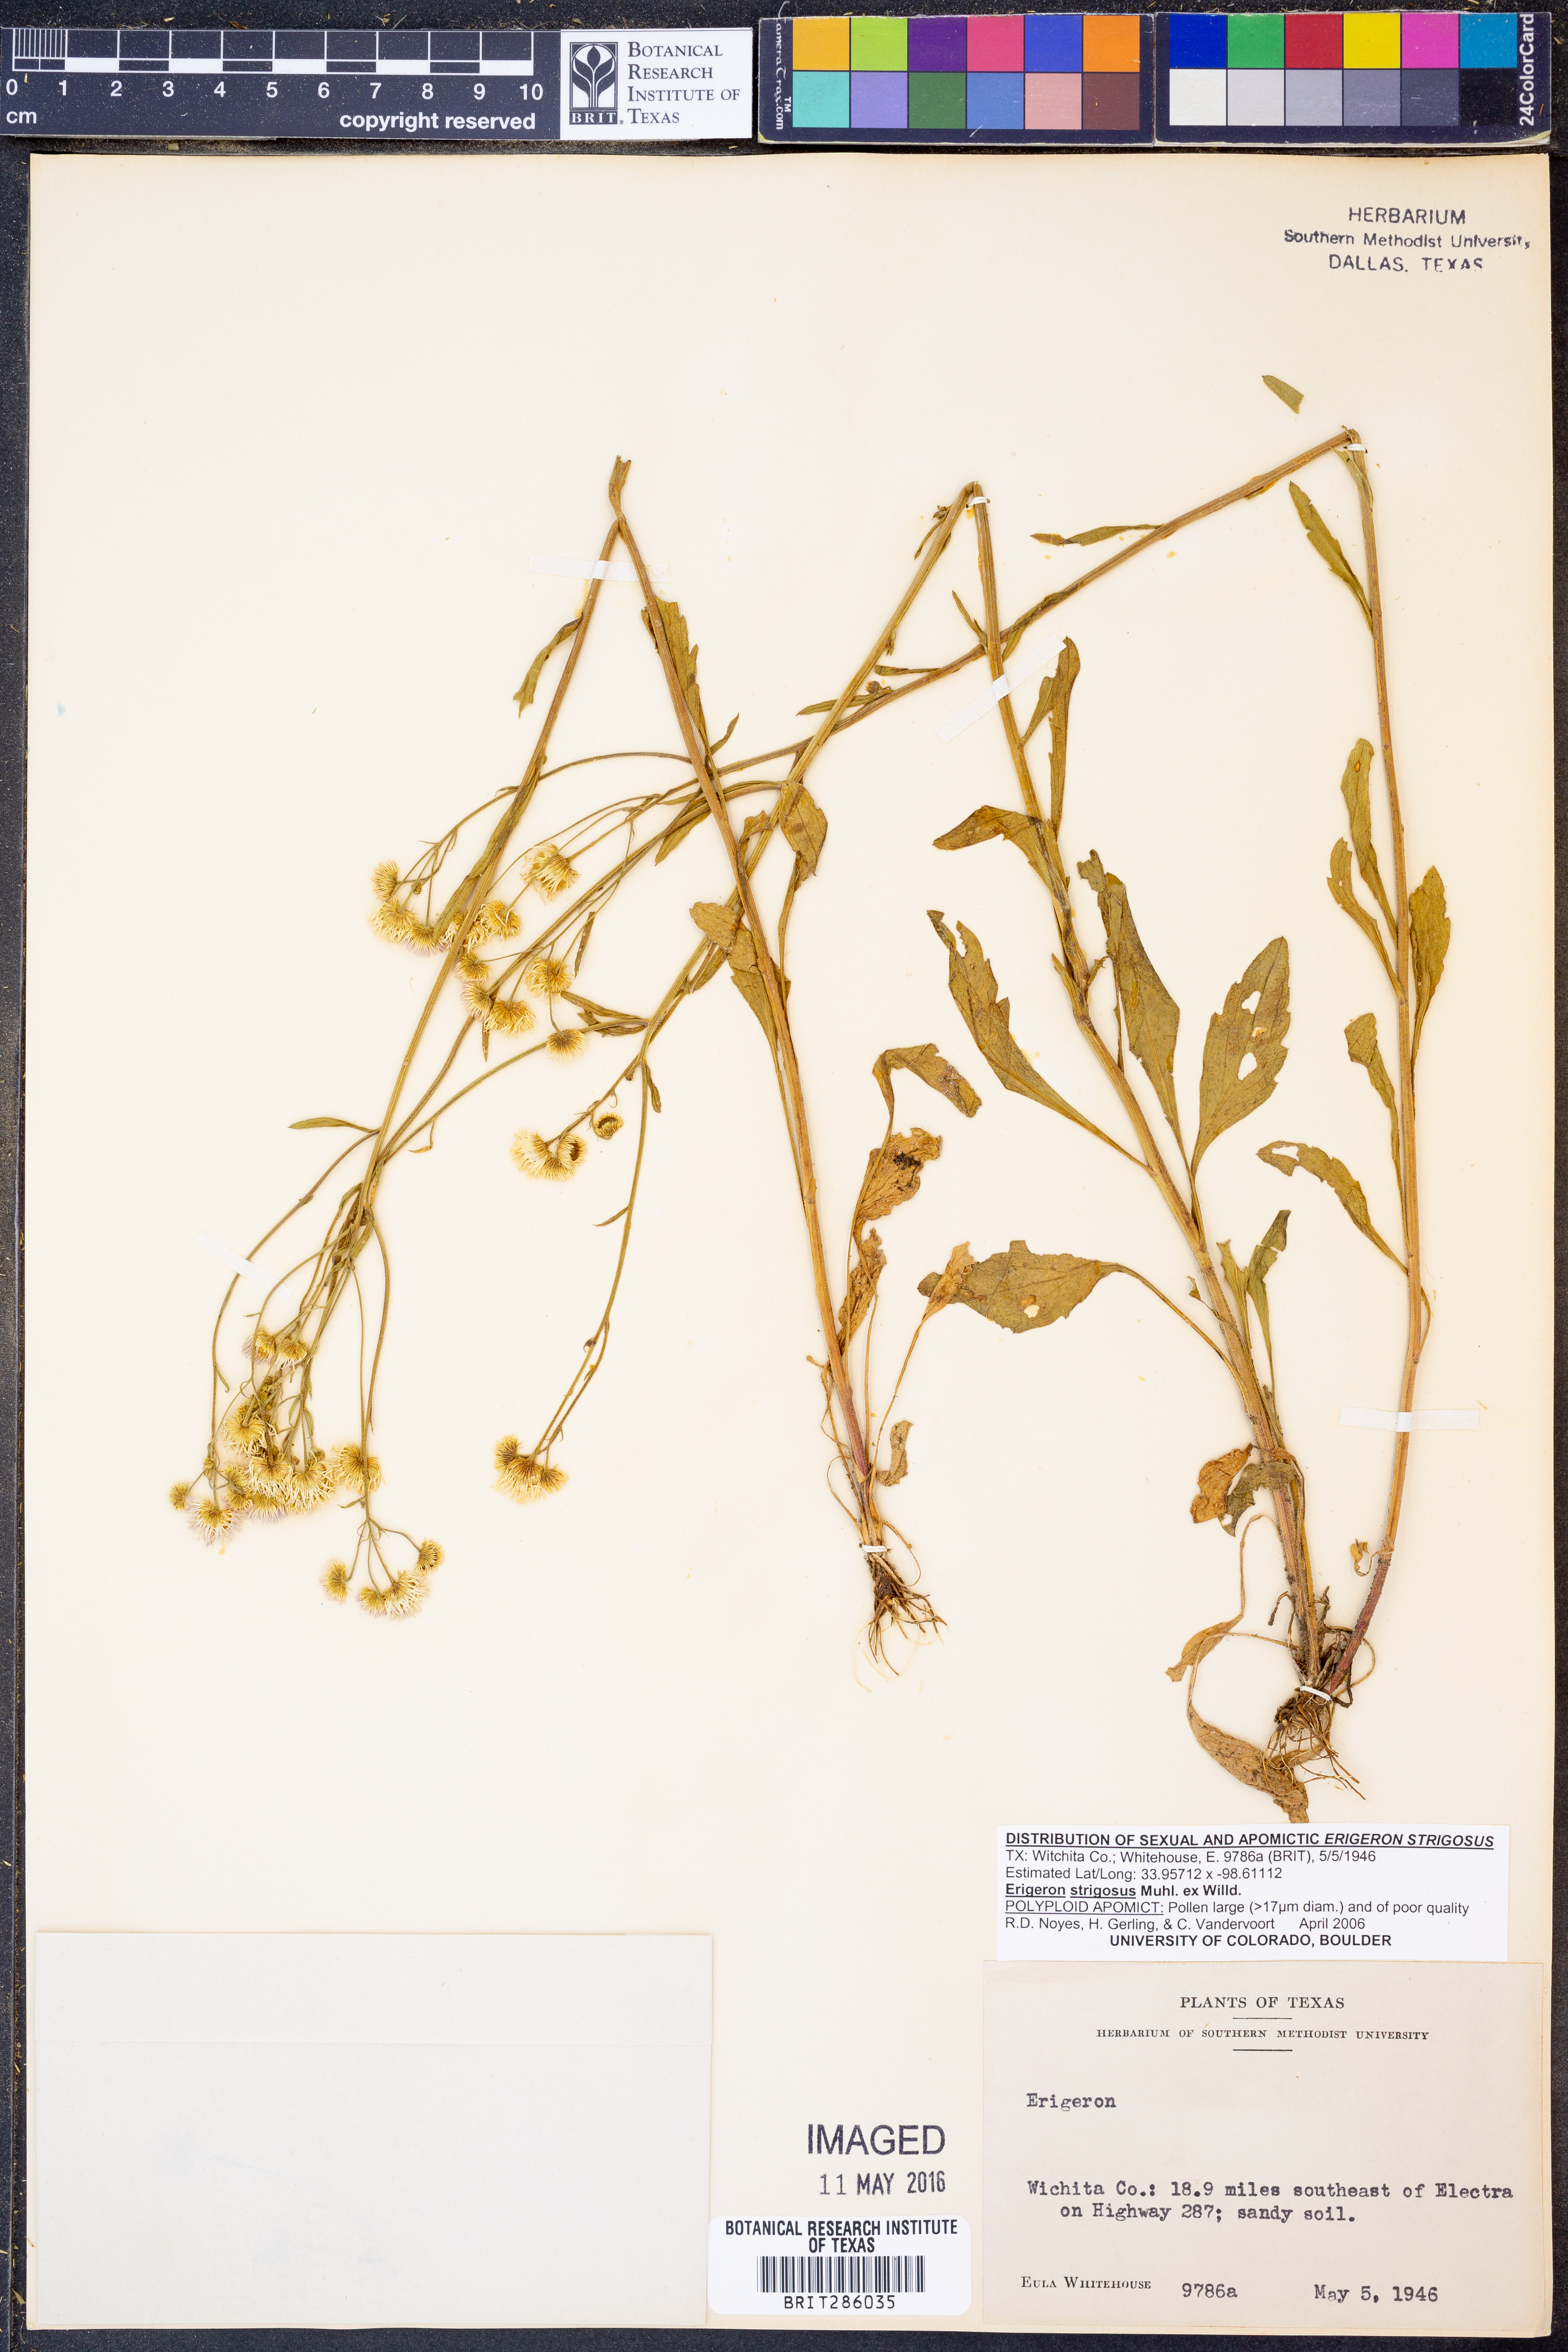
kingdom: Plantae
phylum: Tracheophyta
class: Magnoliopsida
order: Asterales
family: Asteraceae
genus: Erigeron
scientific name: Erigeron strigosus
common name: Common eastern fleabane
